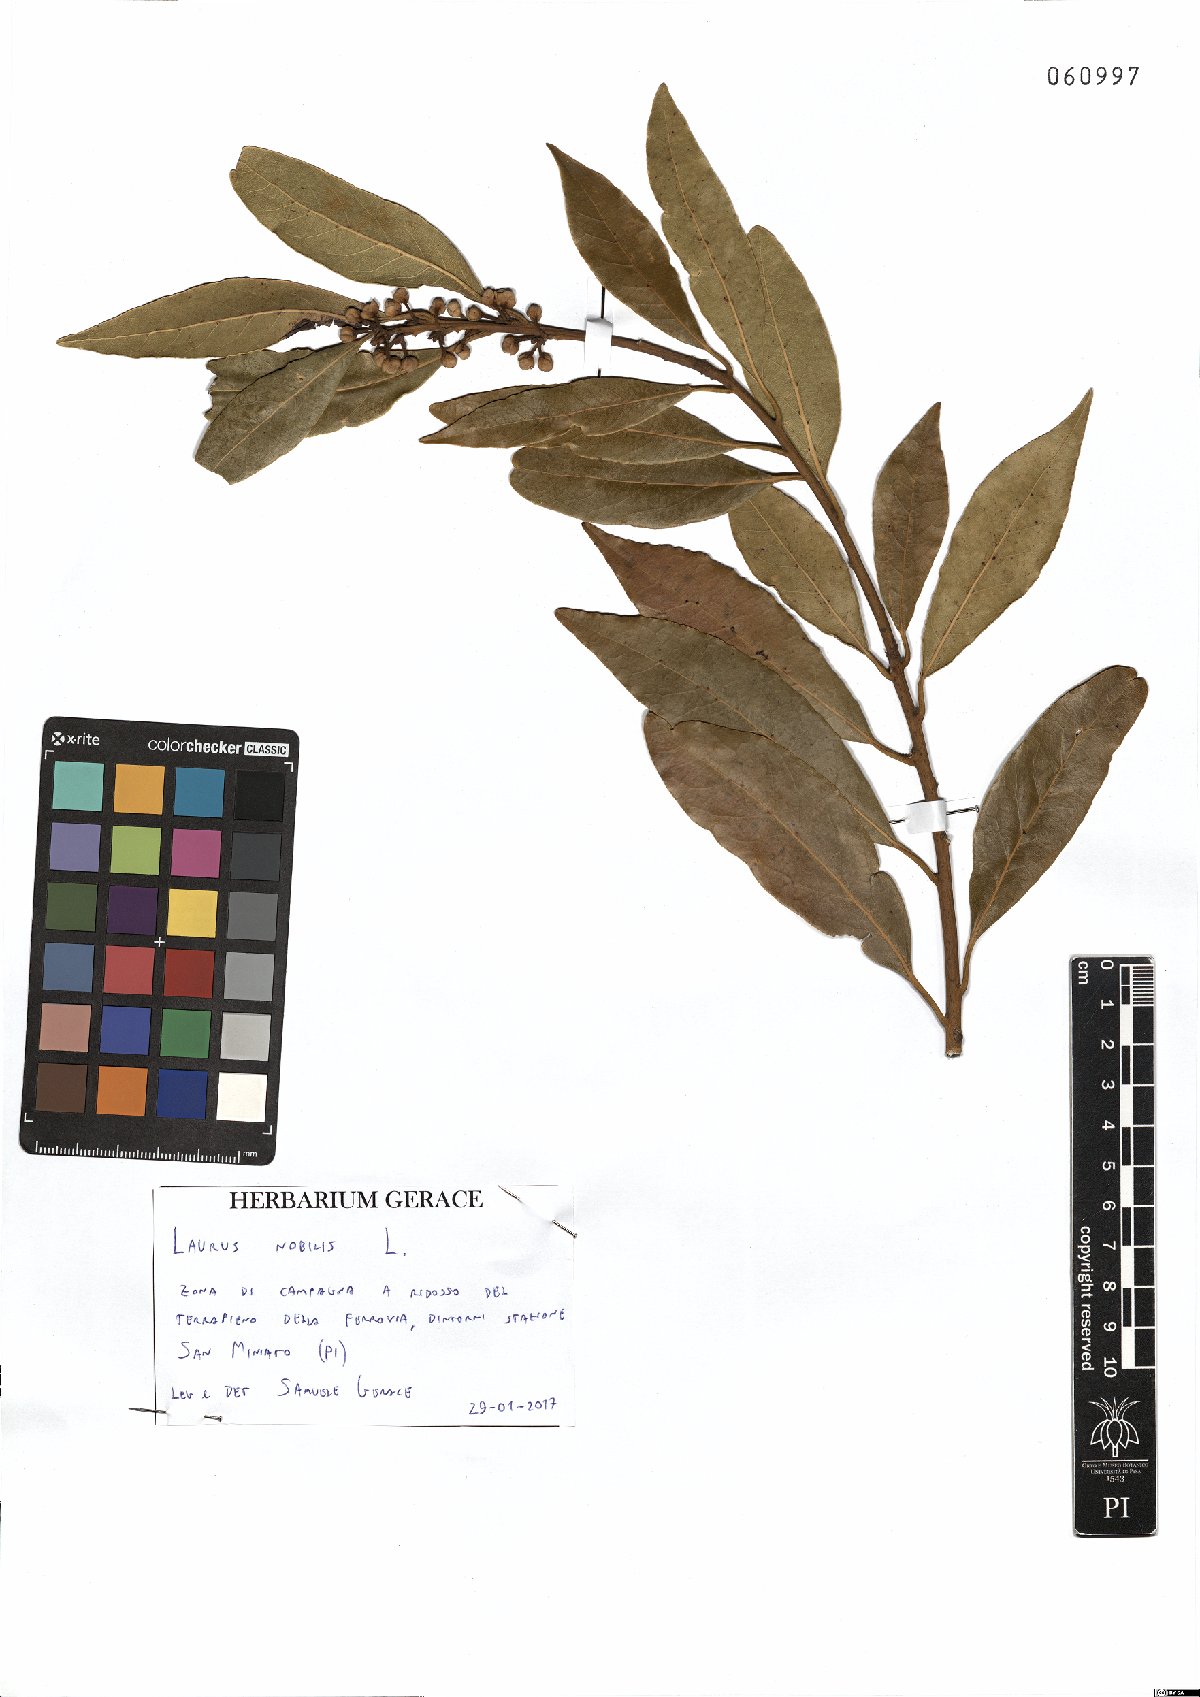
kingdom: Plantae
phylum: Tracheophyta
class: Magnoliopsida
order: Laurales
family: Lauraceae
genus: Laurus
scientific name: Laurus nobilis
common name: Bay
